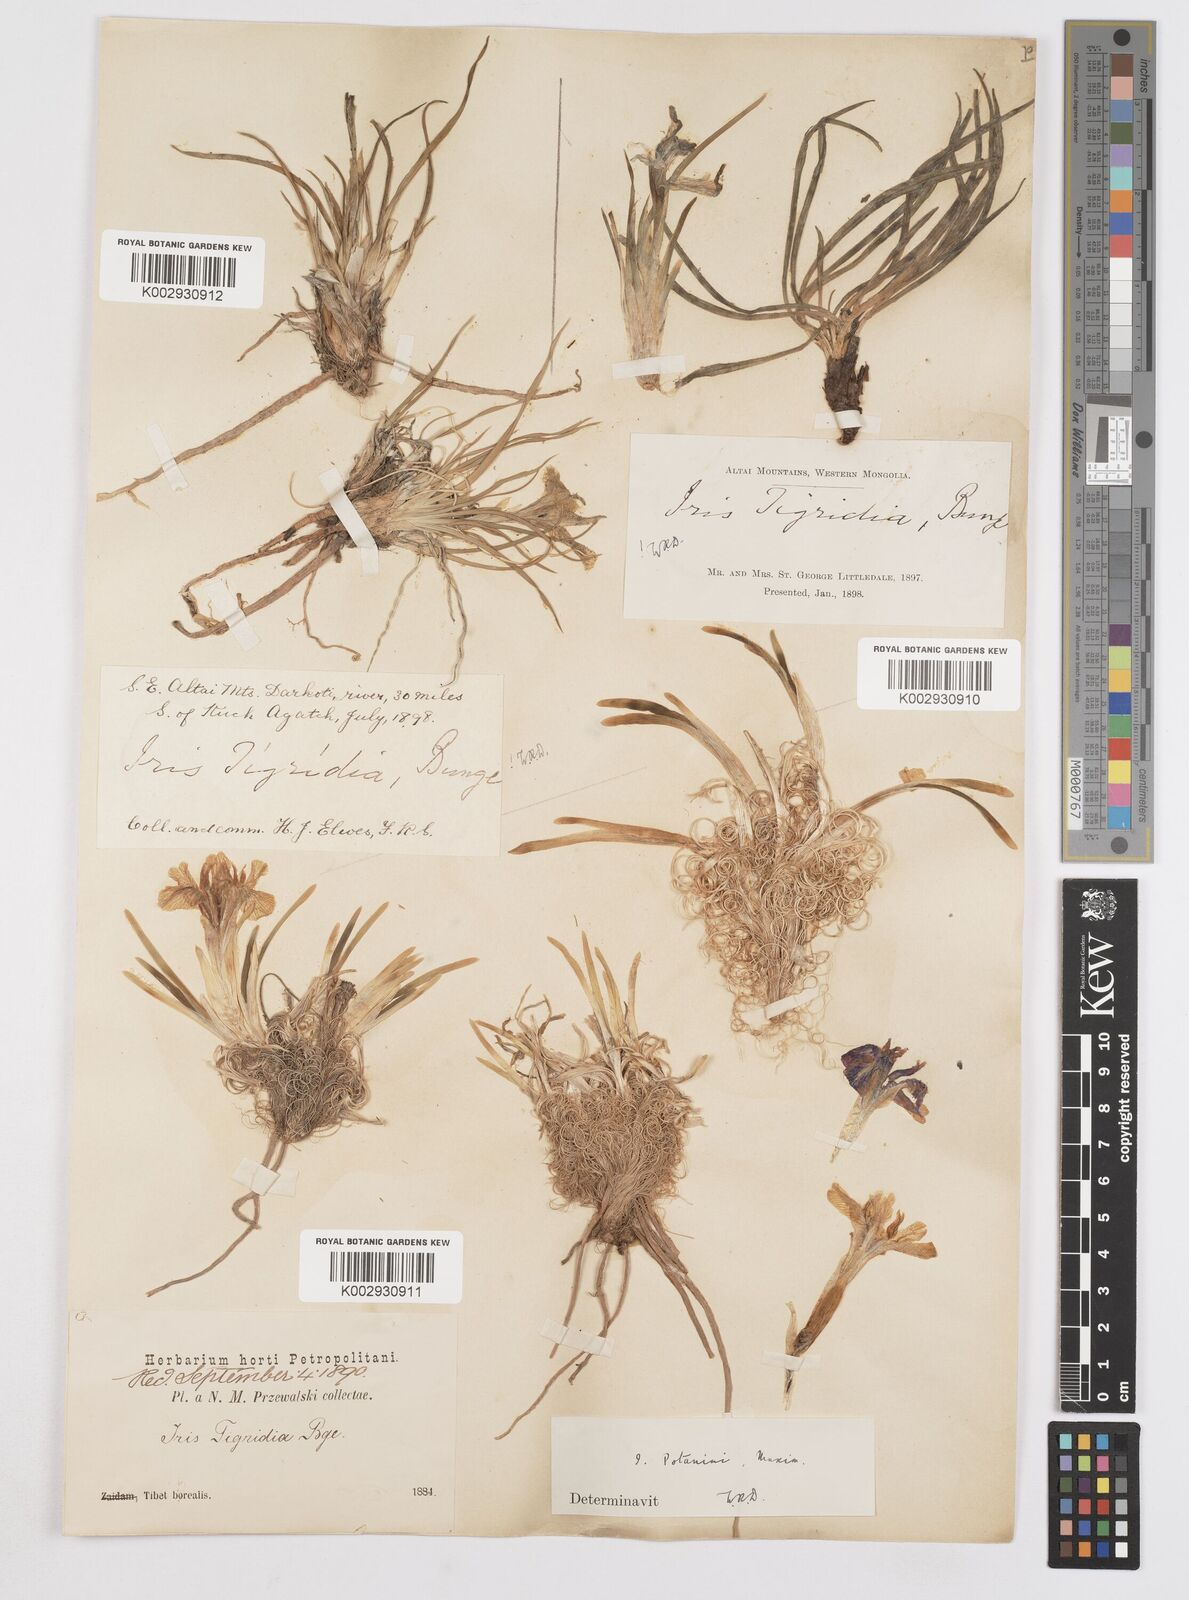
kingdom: Plantae
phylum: Tracheophyta
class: Liliopsida
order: Asparagales
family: Iridaceae
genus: Iris
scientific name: Iris potaninii
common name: Curl-sheath iris
